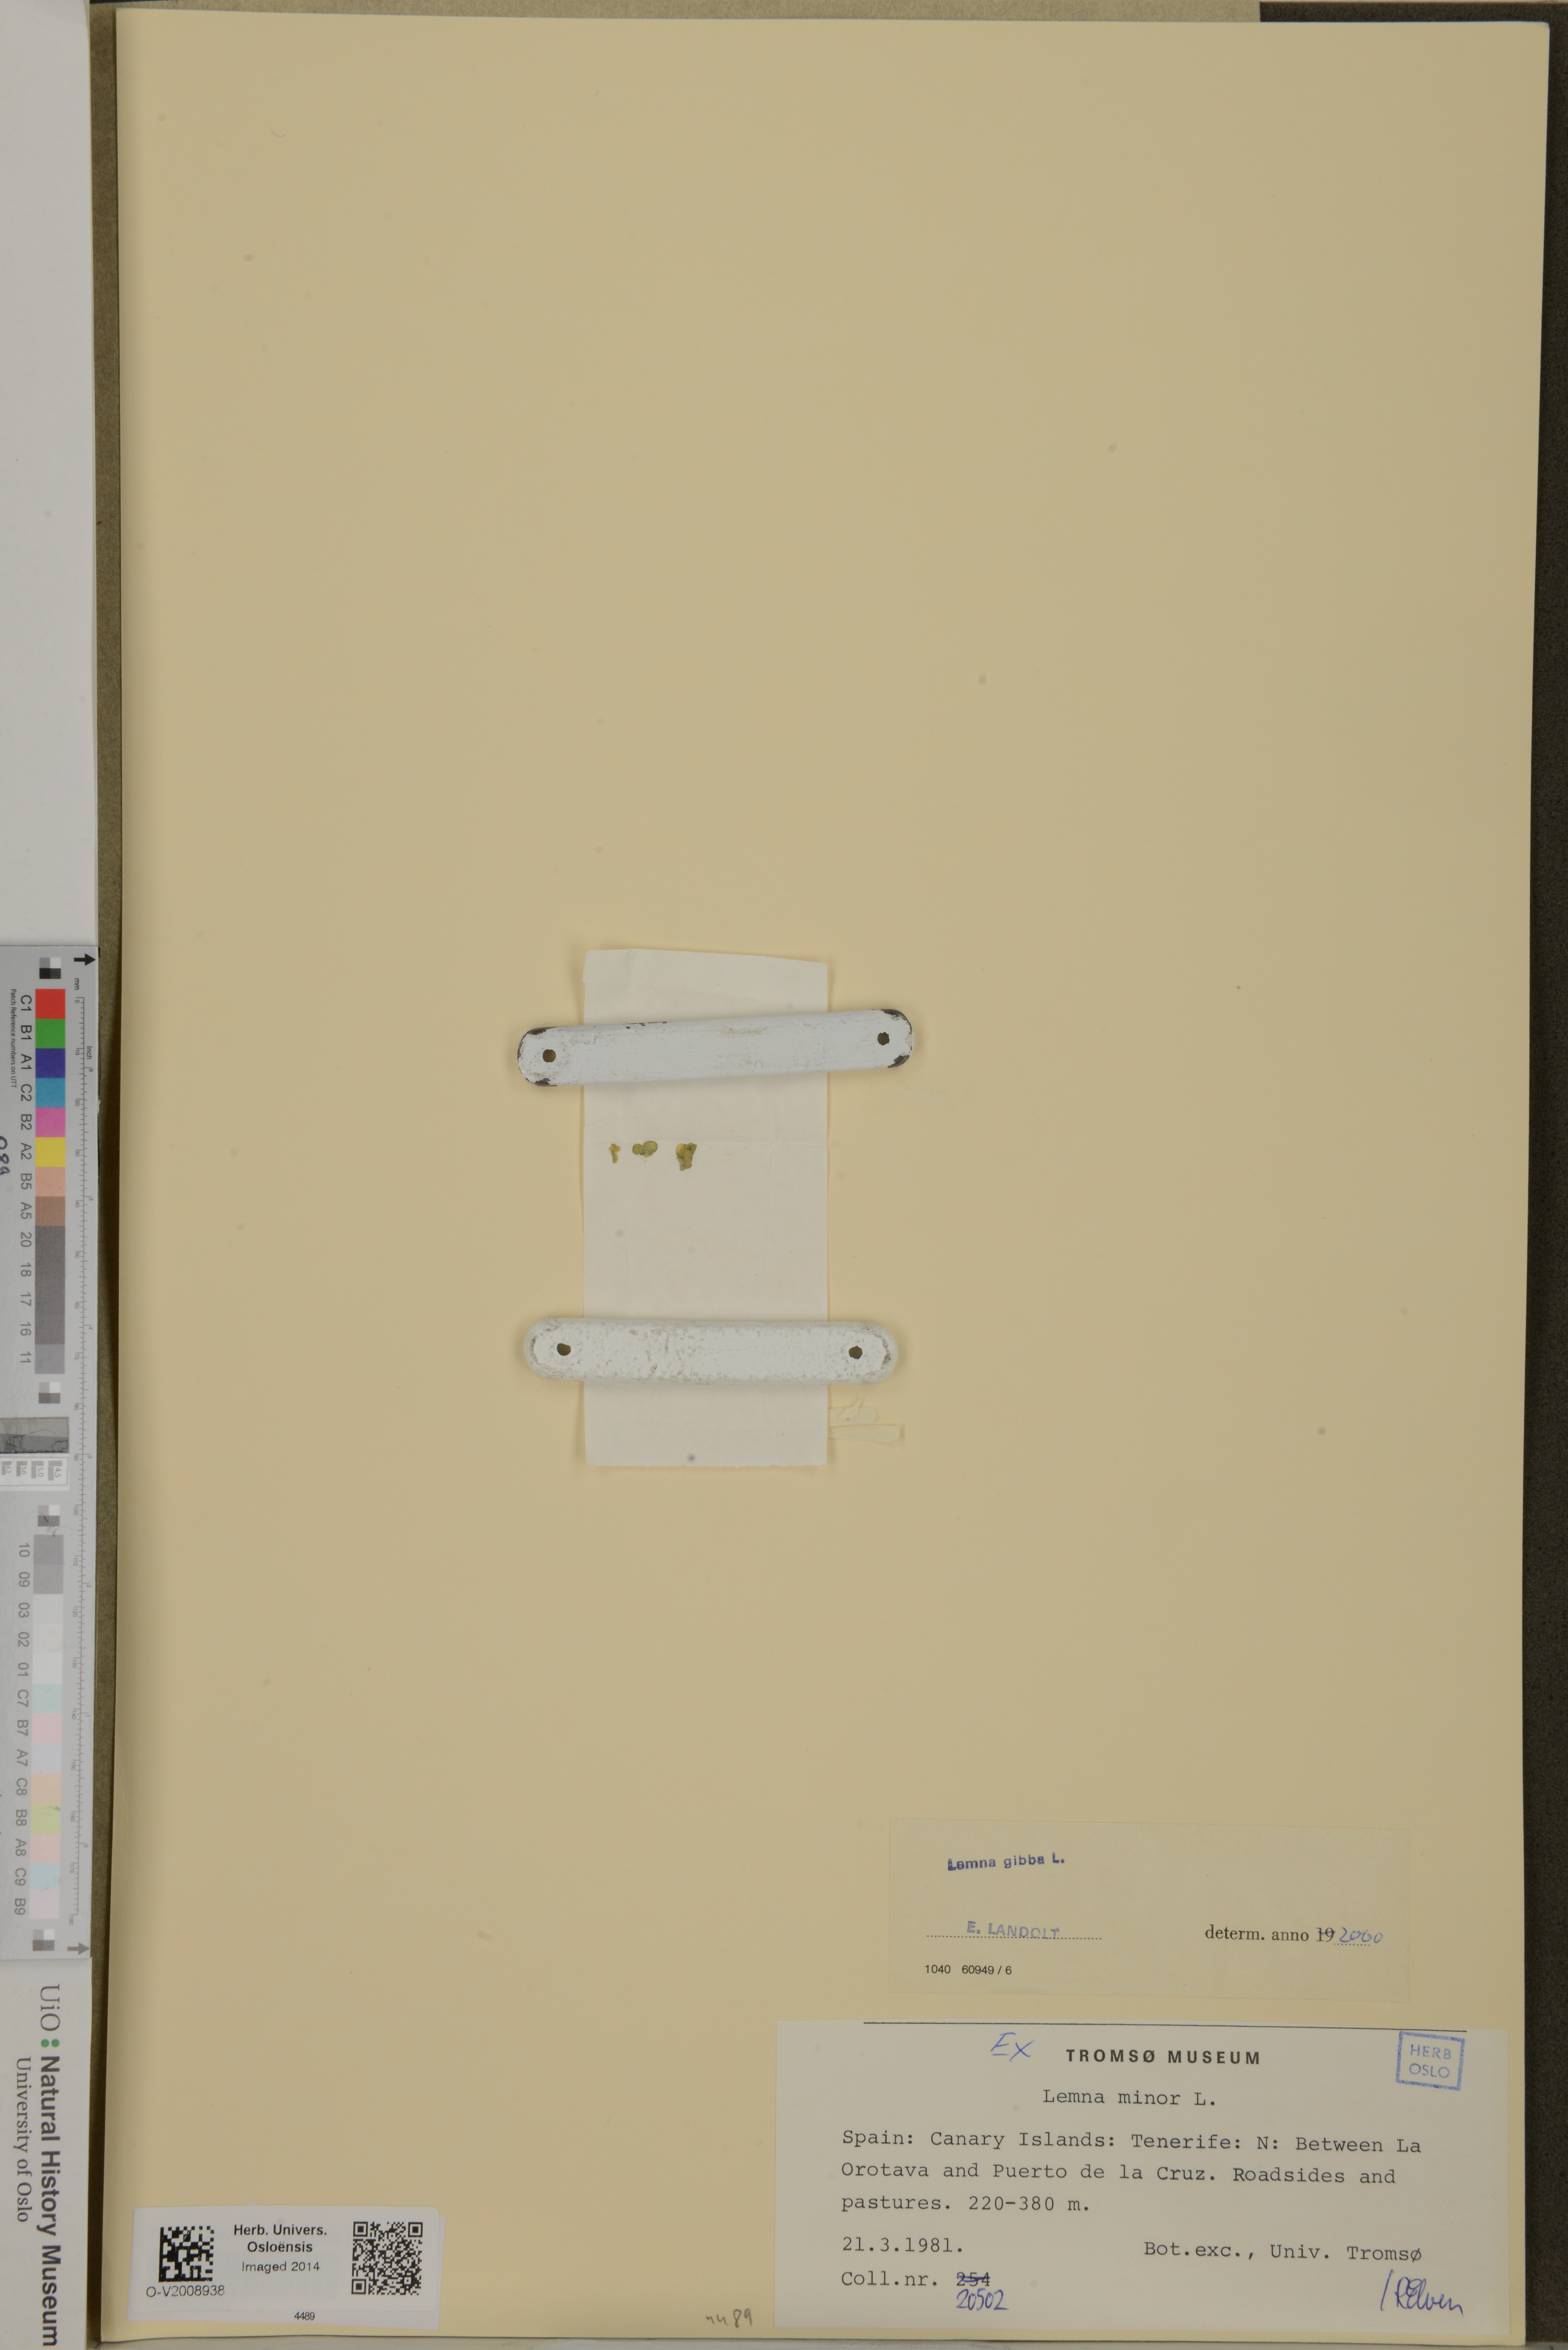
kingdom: Plantae
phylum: Tracheophyta
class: Liliopsida
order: Alismatales
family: Araceae
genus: Lemna
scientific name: Lemna gibba
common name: Fat duckweed
